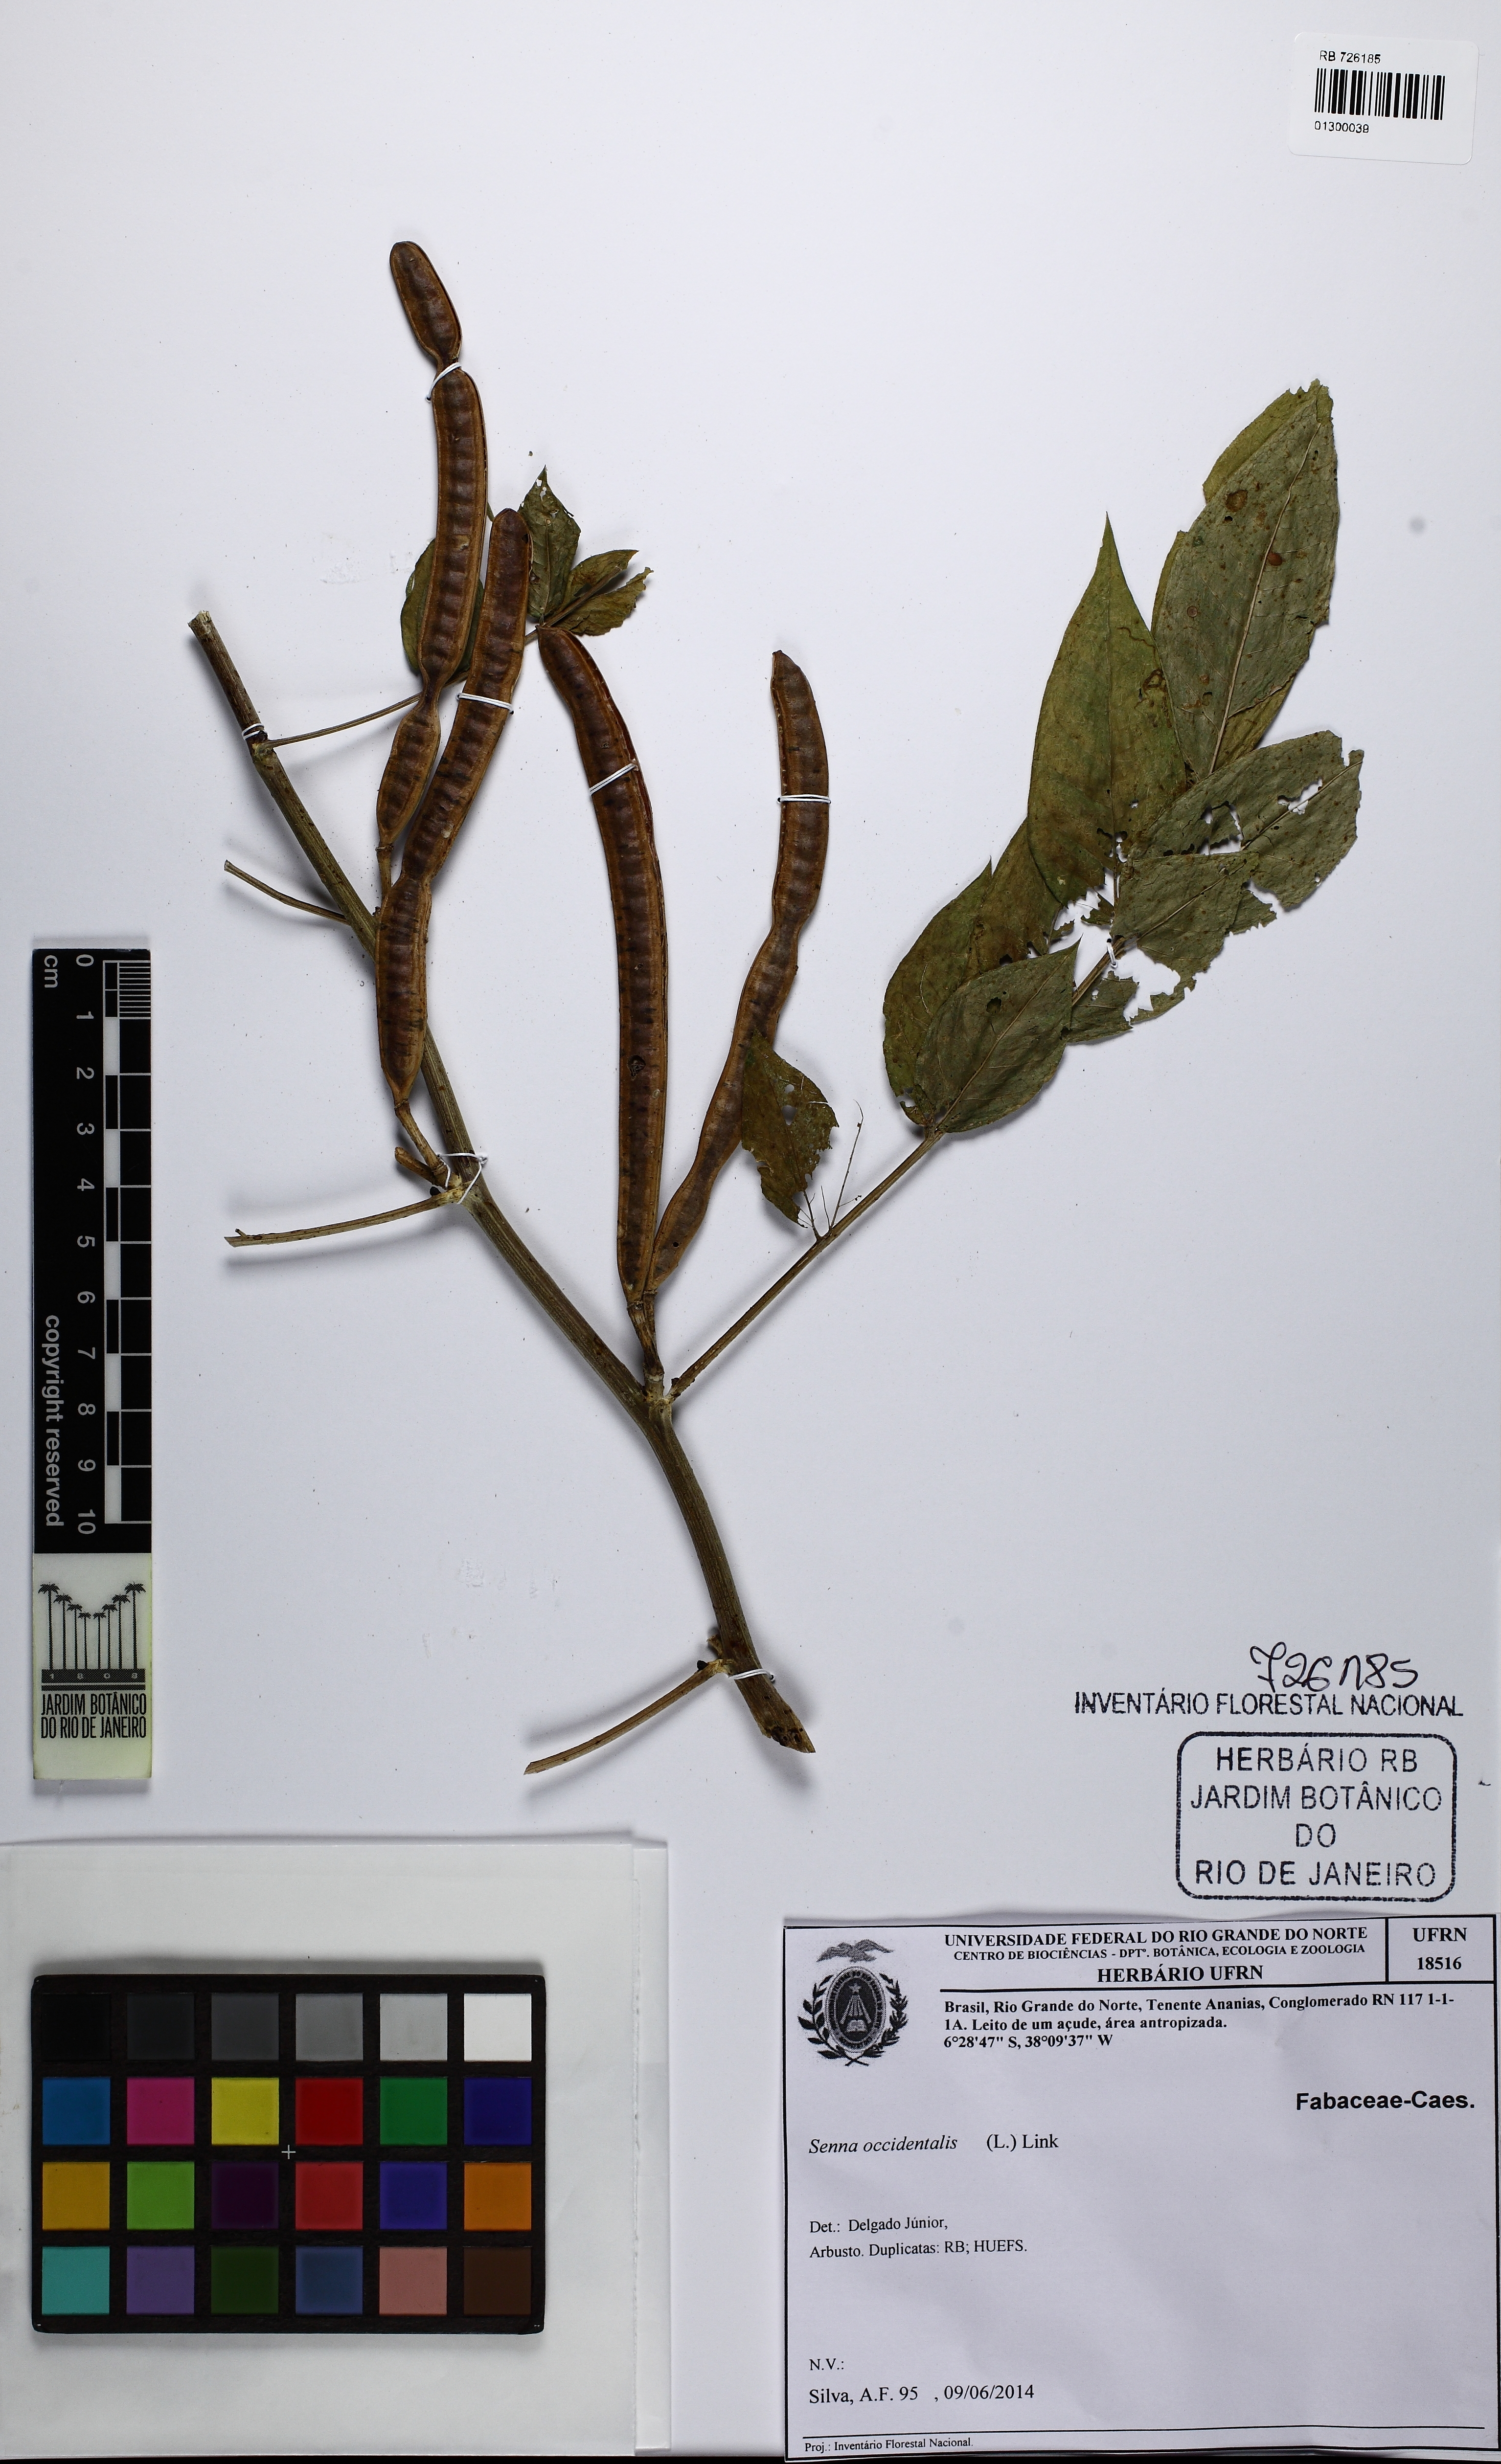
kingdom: Plantae
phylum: Tracheophyta
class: Magnoliopsida
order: Fabales
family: Fabaceae
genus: Senna
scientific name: Senna occidentalis
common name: Septicweed
